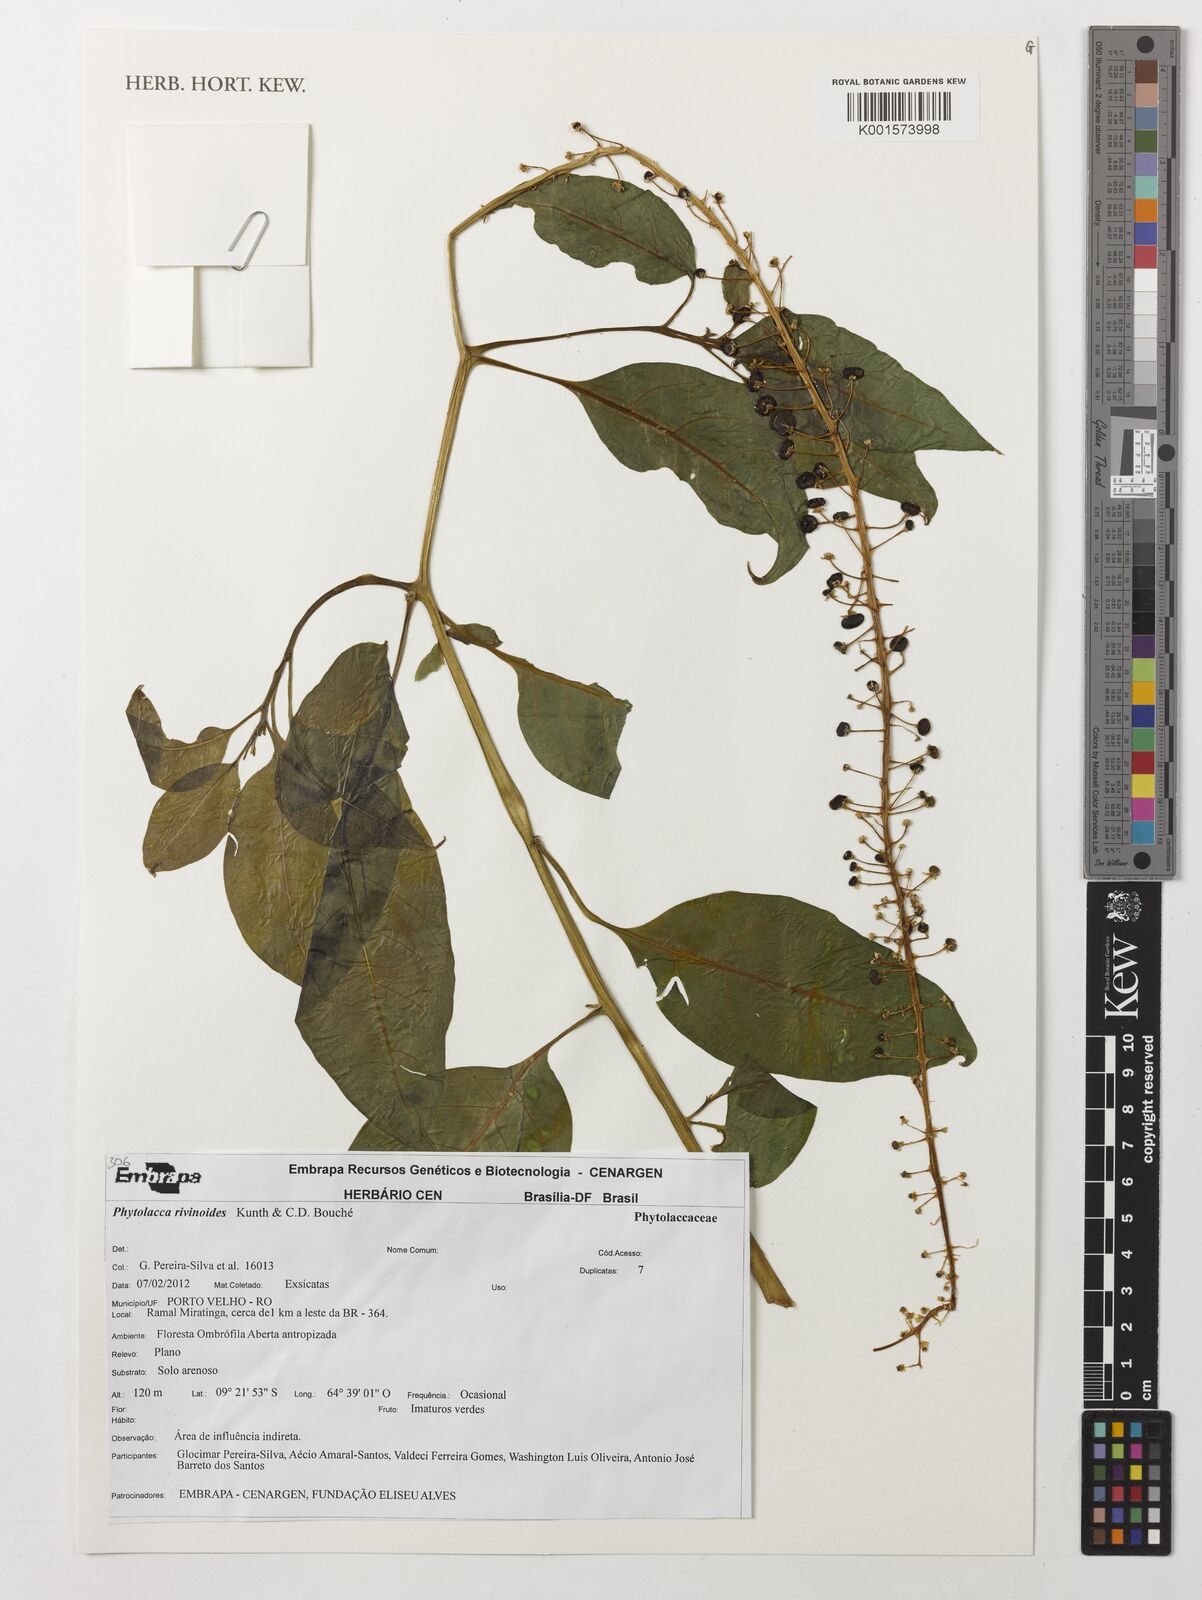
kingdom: Plantae
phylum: Tracheophyta
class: Magnoliopsida
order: Caryophyllales
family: Phytolaccaceae
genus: Phytolacca
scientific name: Phytolacca rivinoides
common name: Venezuelan pokeweed
